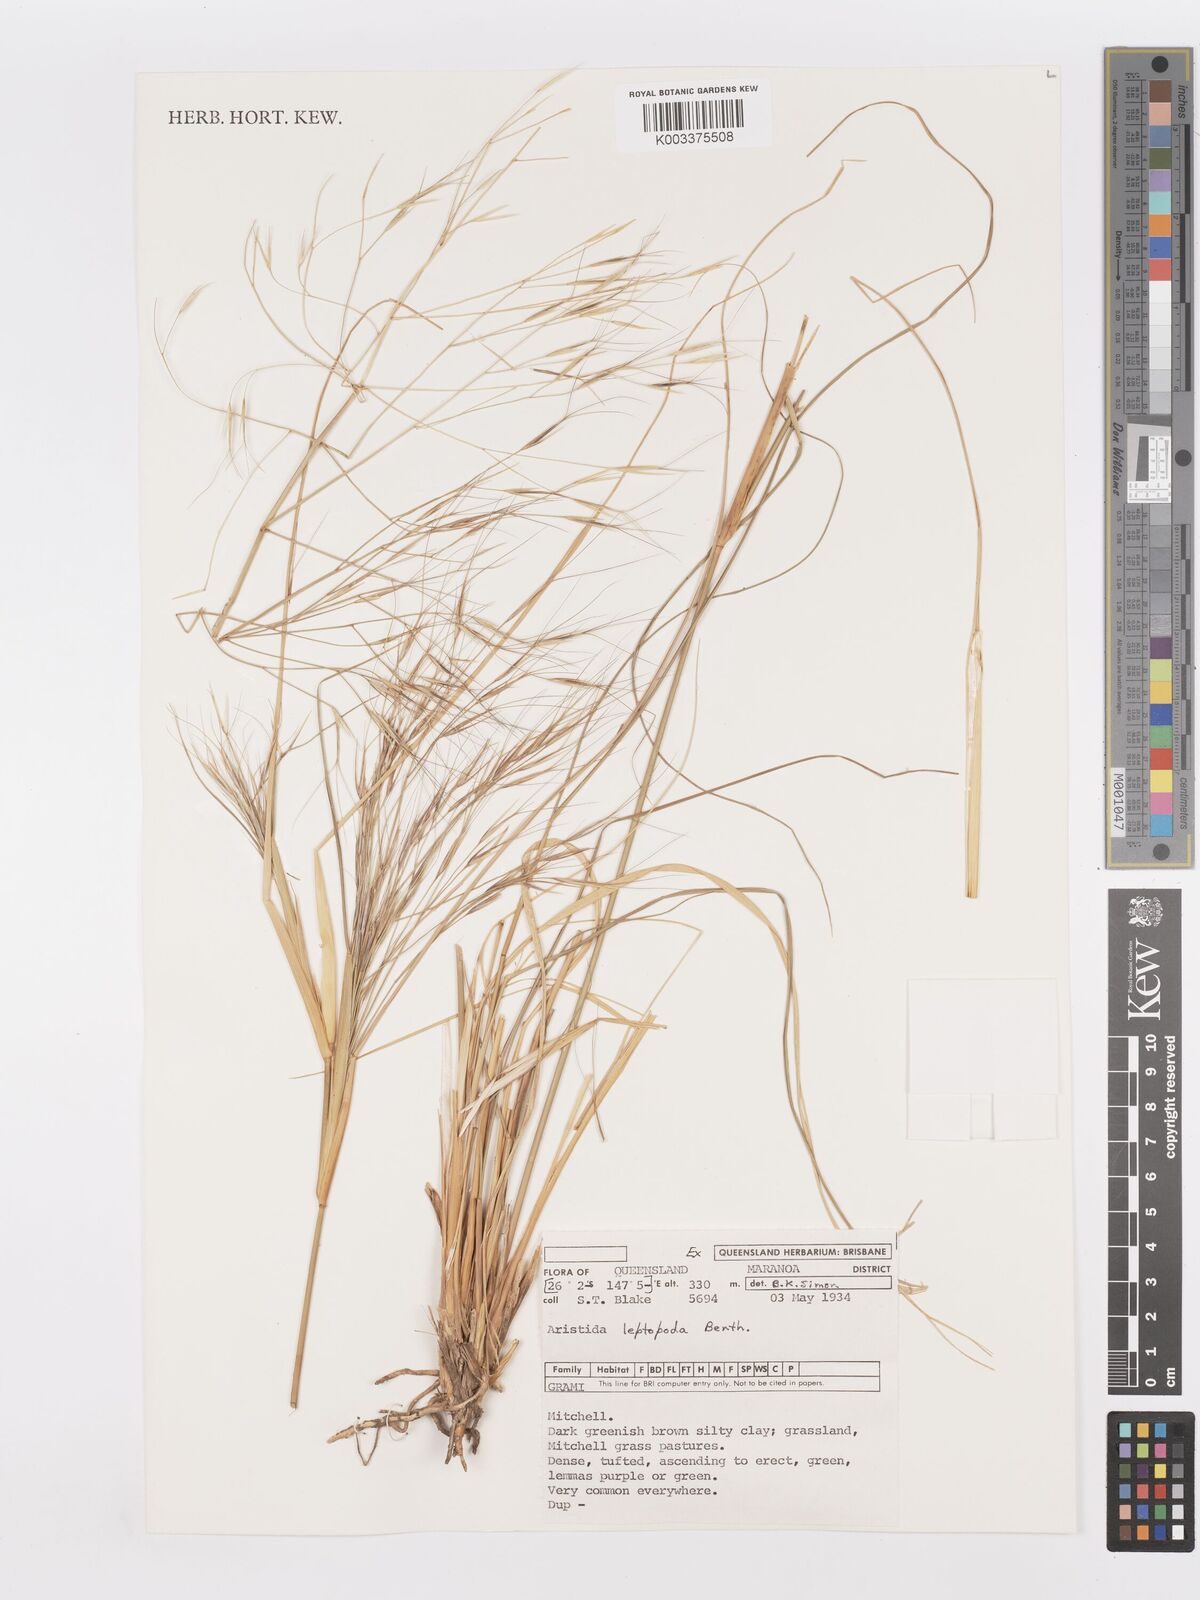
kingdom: Plantae
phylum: Tracheophyta
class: Liliopsida
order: Poales
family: Poaceae
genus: Aristida
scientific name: Aristida leptopoda
